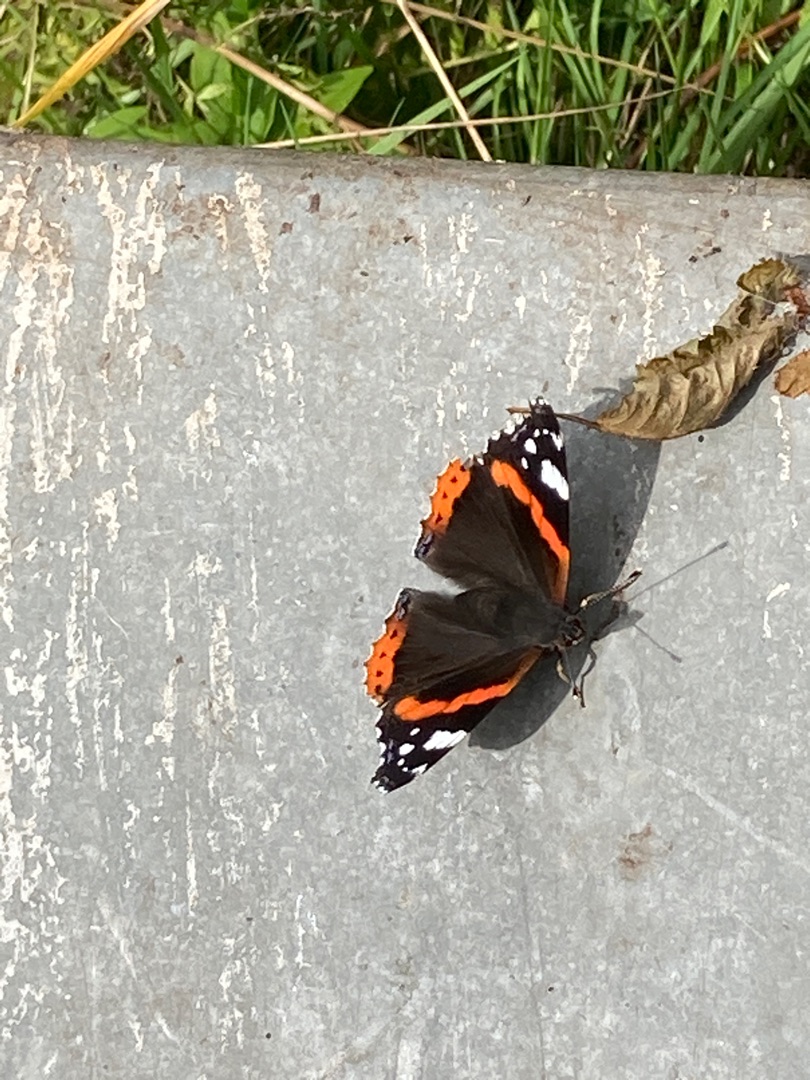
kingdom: Animalia
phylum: Arthropoda
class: Insecta
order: Lepidoptera
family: Nymphalidae
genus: Vanessa
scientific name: Vanessa atalanta
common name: Admiral
